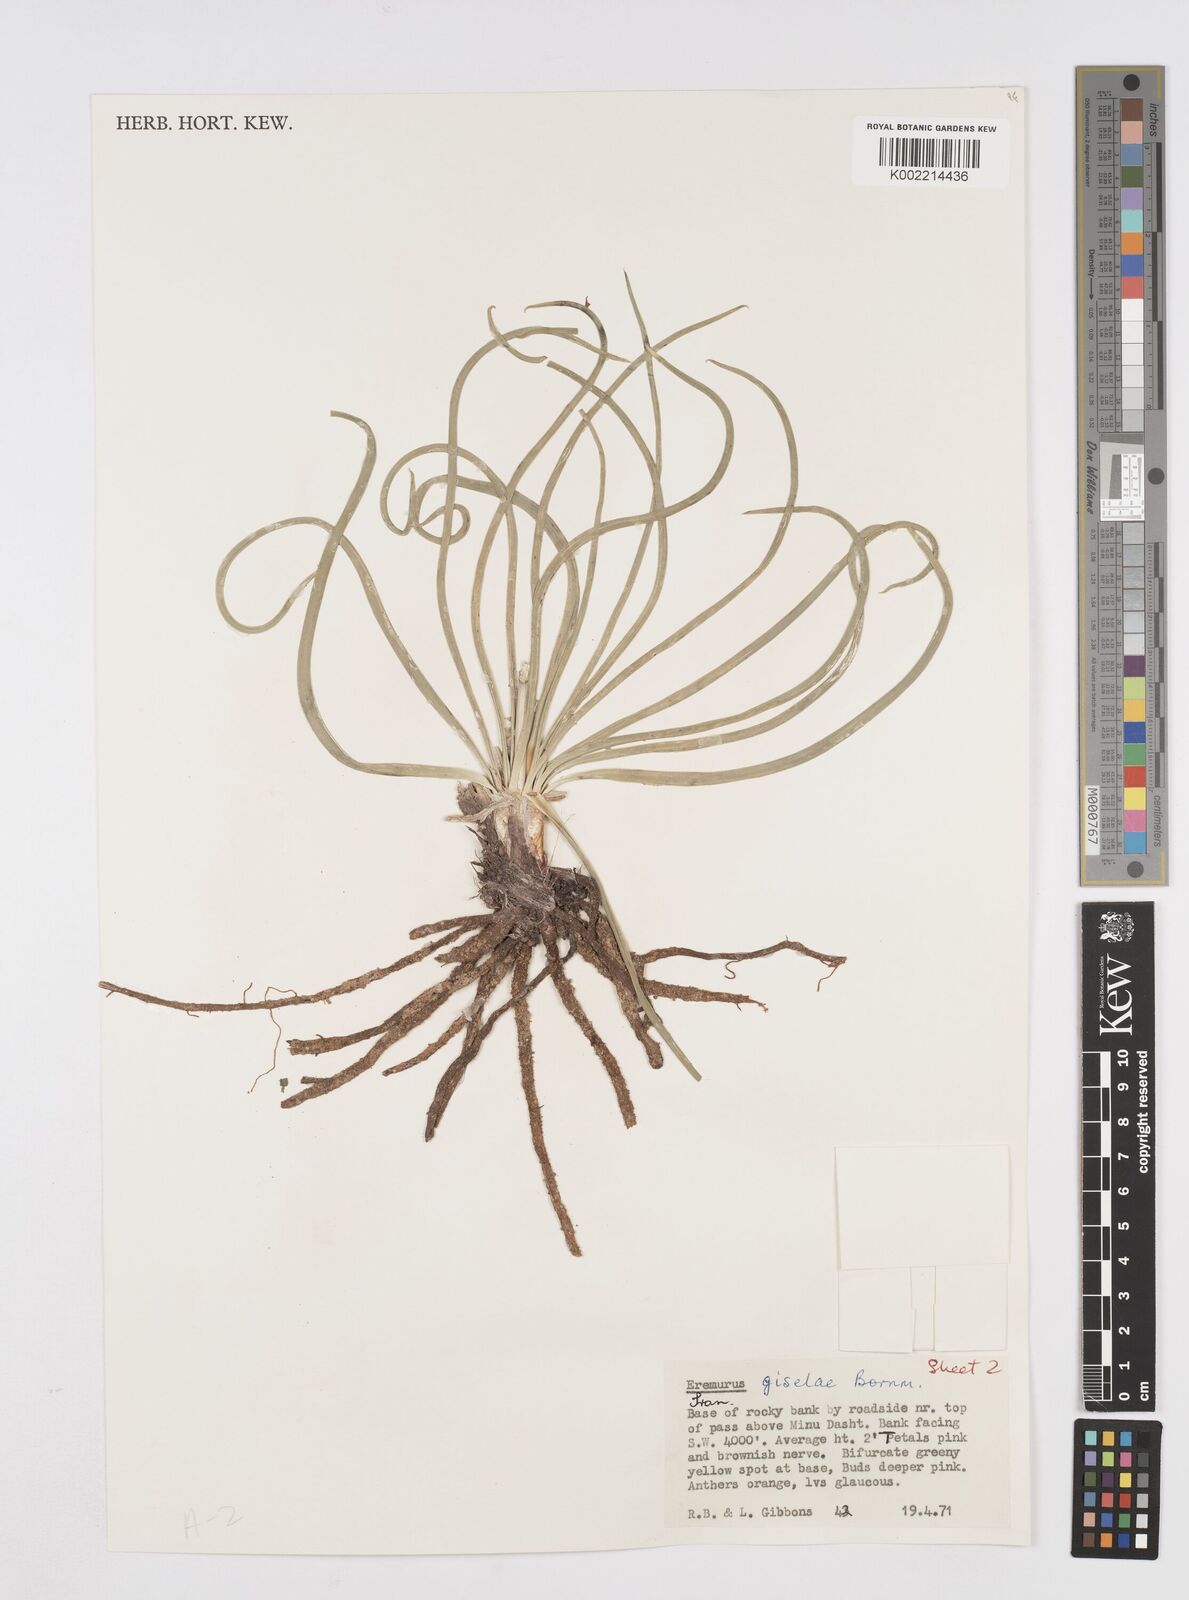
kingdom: Plantae
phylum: Tracheophyta
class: Liliopsida
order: Asparagales
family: Asphodelaceae
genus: Eremurus
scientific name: Eremurus kopet-daghensis
